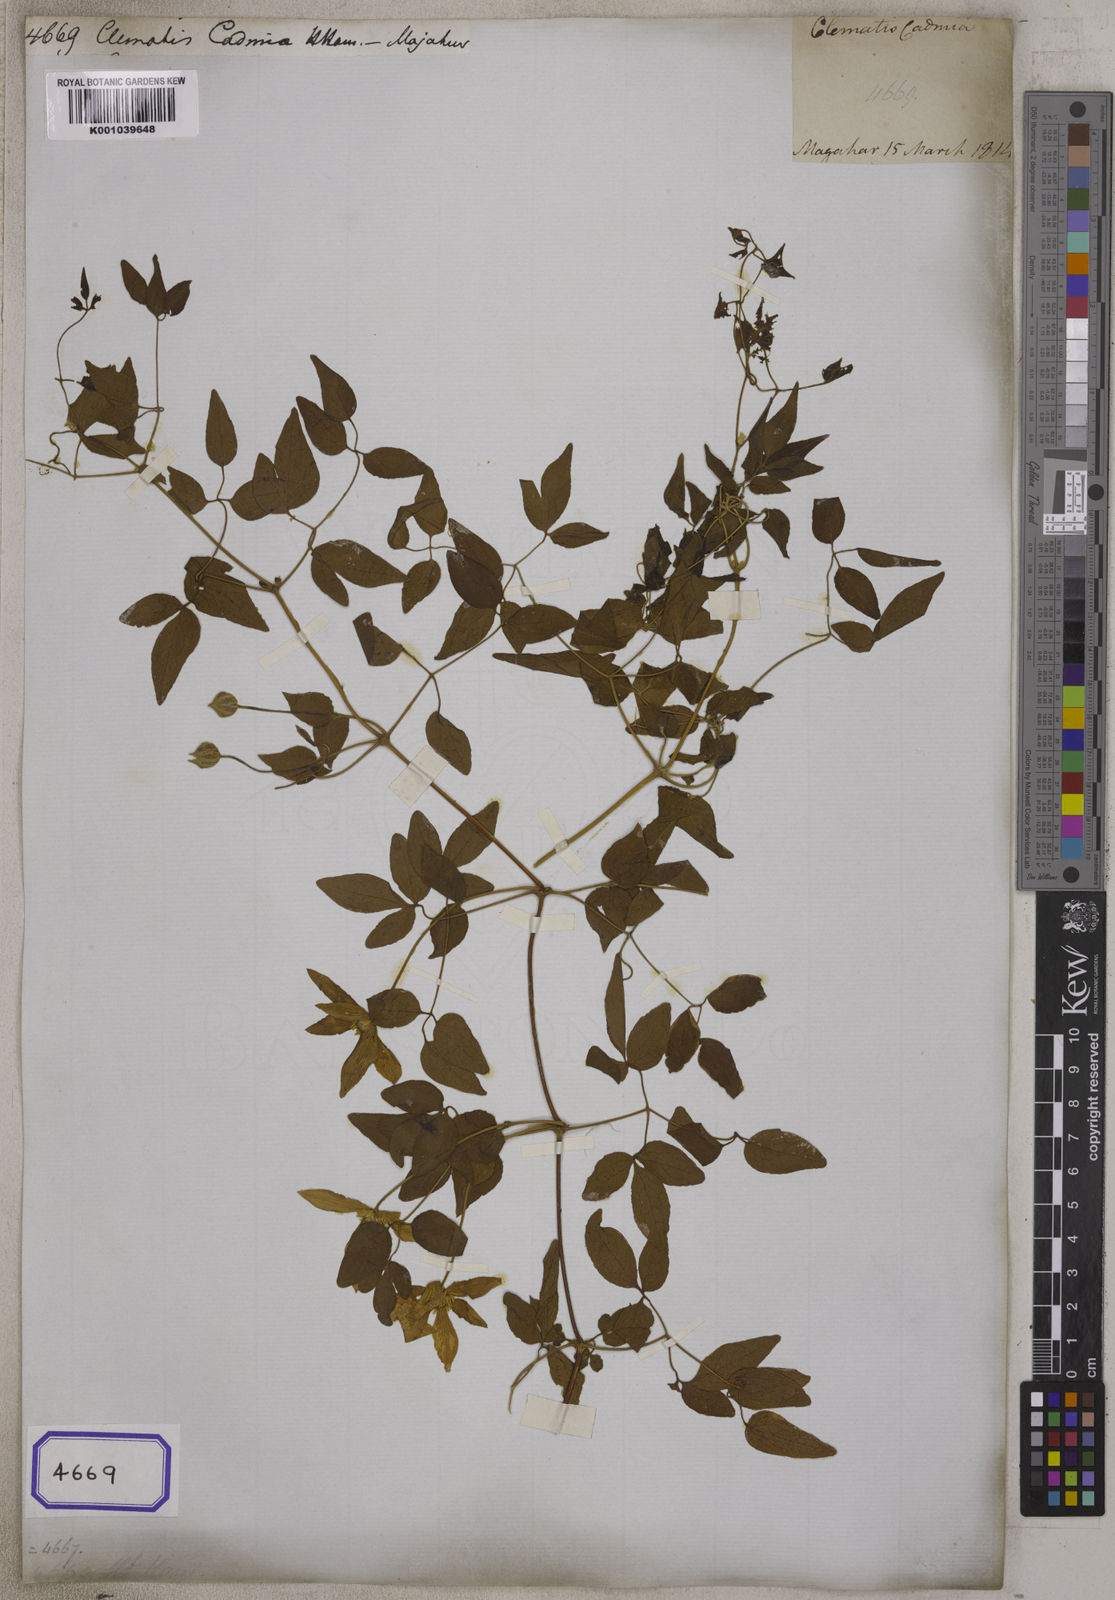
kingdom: Plantae
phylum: Tracheophyta
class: Magnoliopsida
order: Ranunculales
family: Ranunculaceae
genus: Clematis
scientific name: Clematis cadmia
